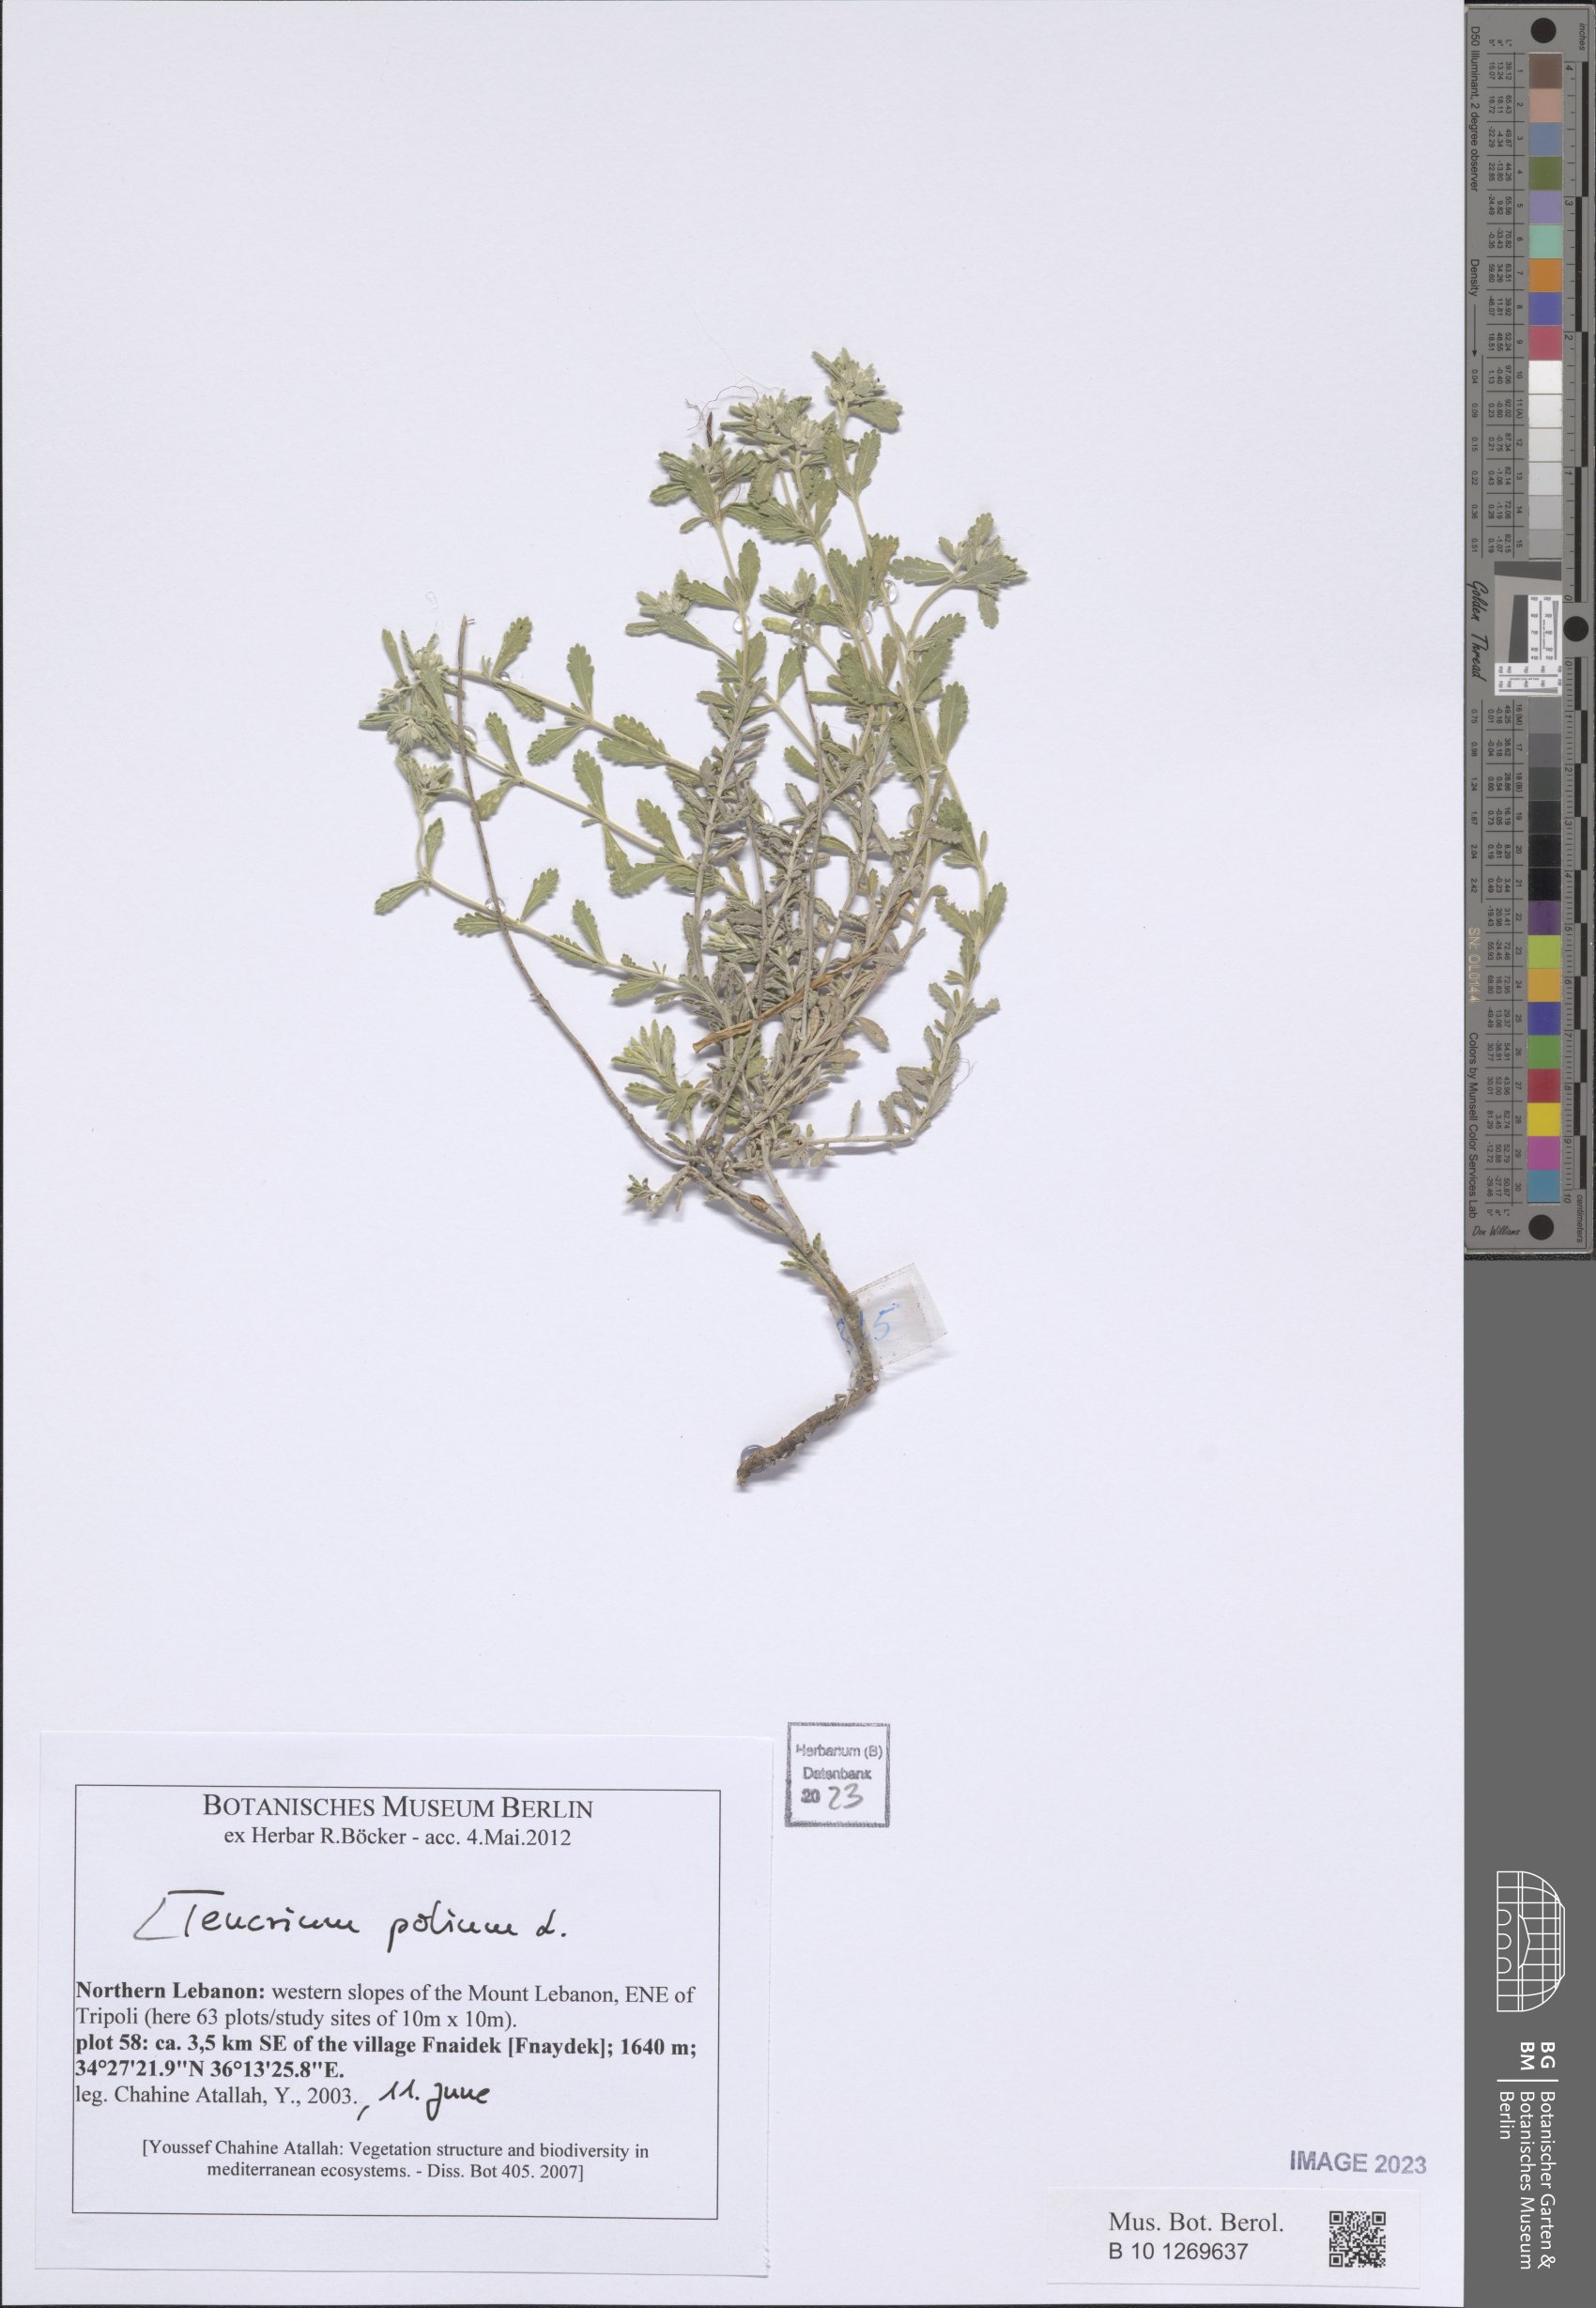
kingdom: Plantae
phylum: Tracheophyta
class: Magnoliopsida
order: Lamiales
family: Lamiaceae
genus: Teucrium
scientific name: Teucrium polium
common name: Poley
